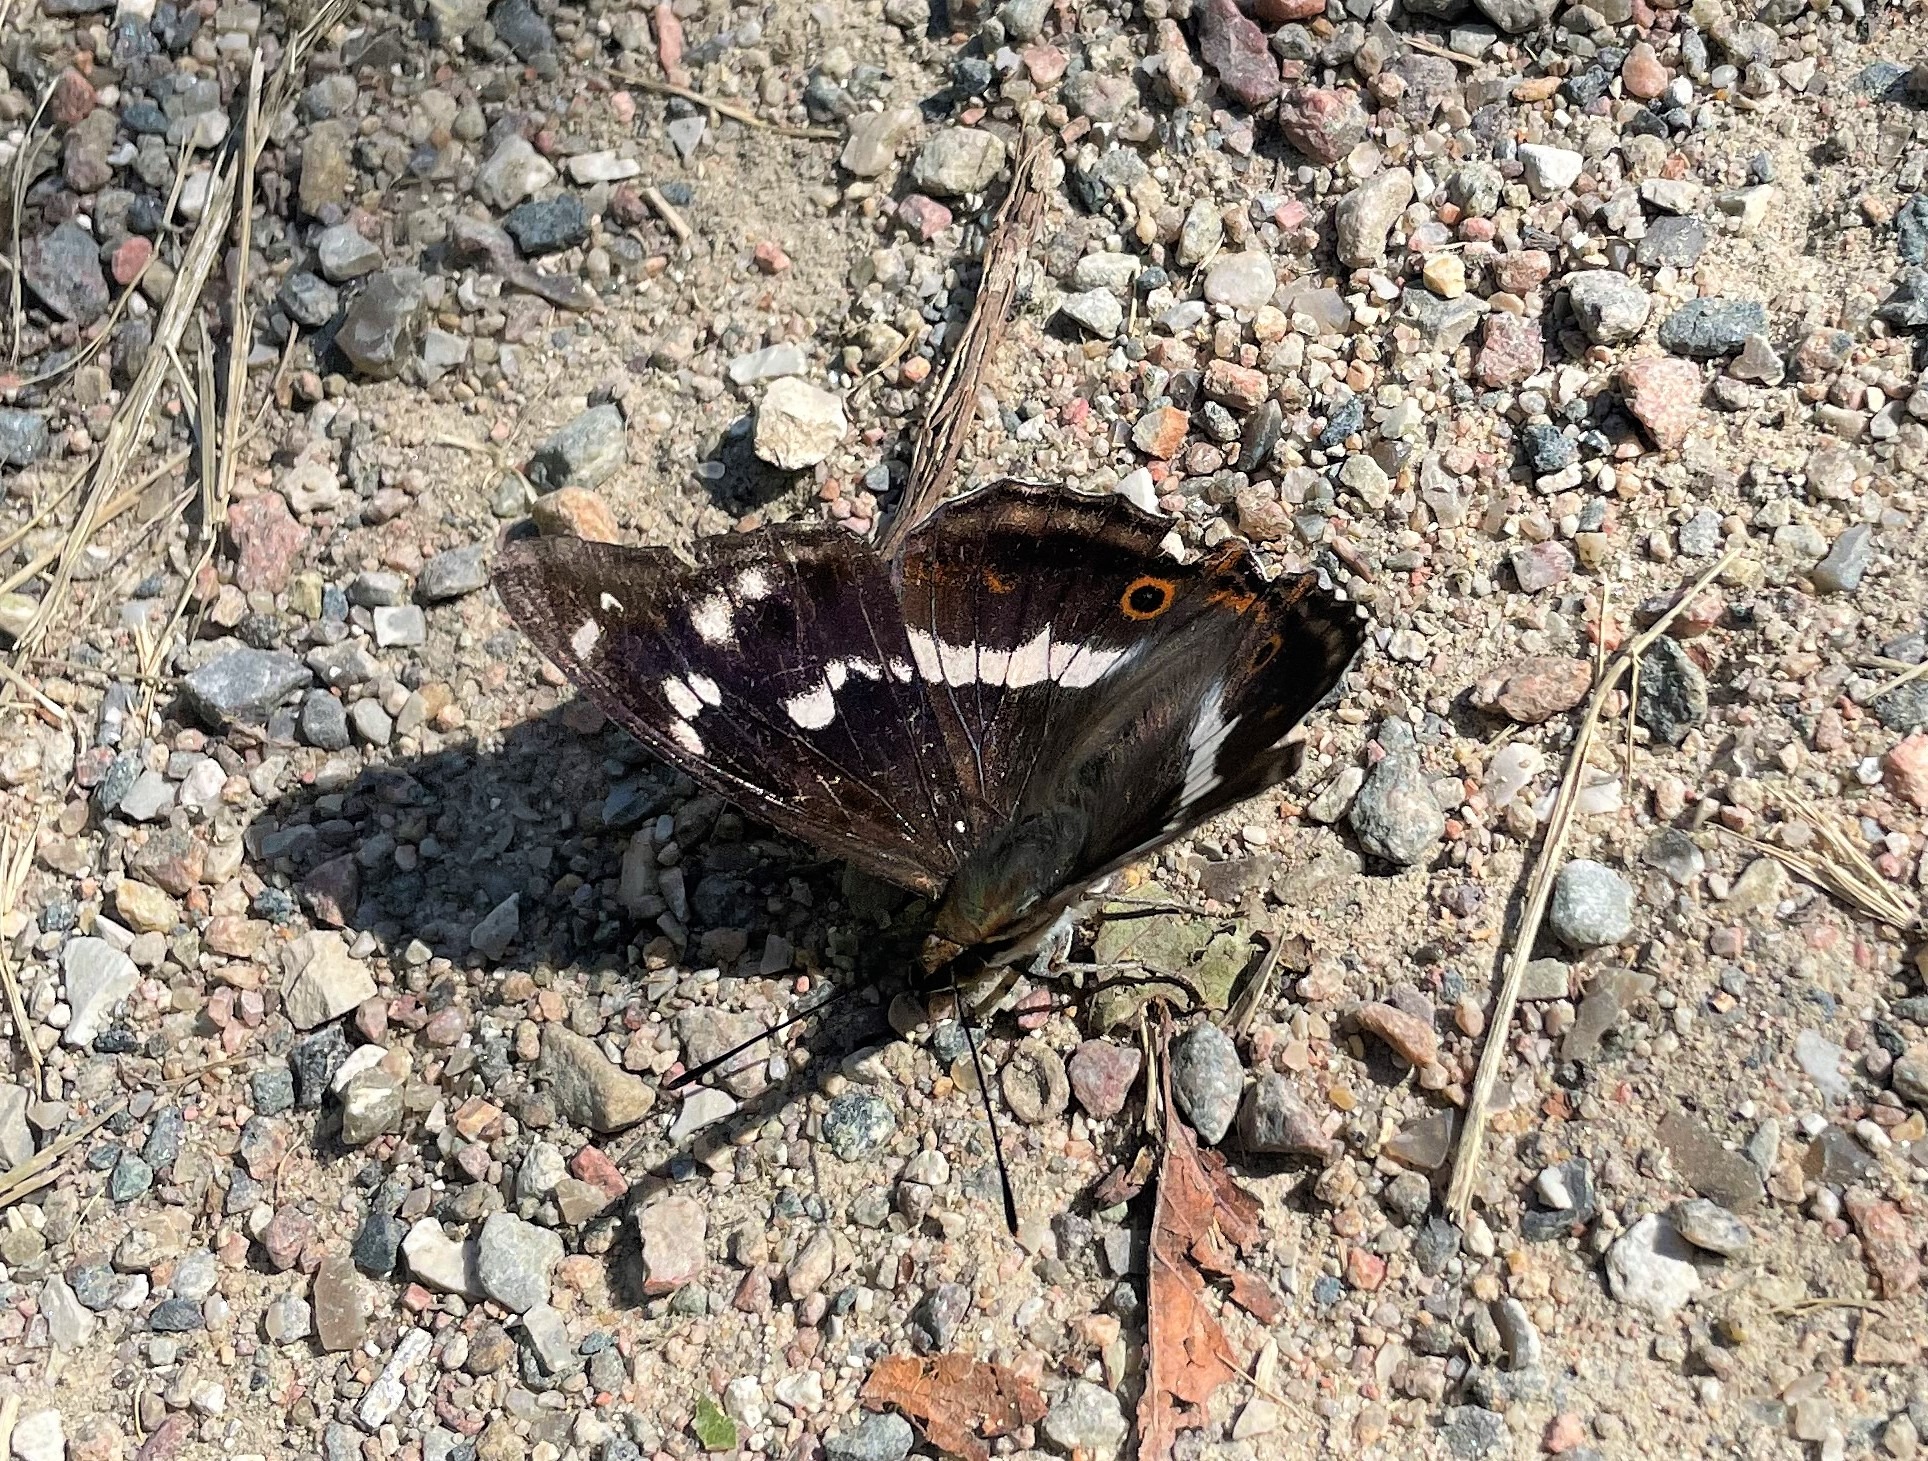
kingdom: Animalia
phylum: Arthropoda
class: Insecta
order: Lepidoptera
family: Nymphalidae
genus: Apatura
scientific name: Apatura iris
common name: Iris
